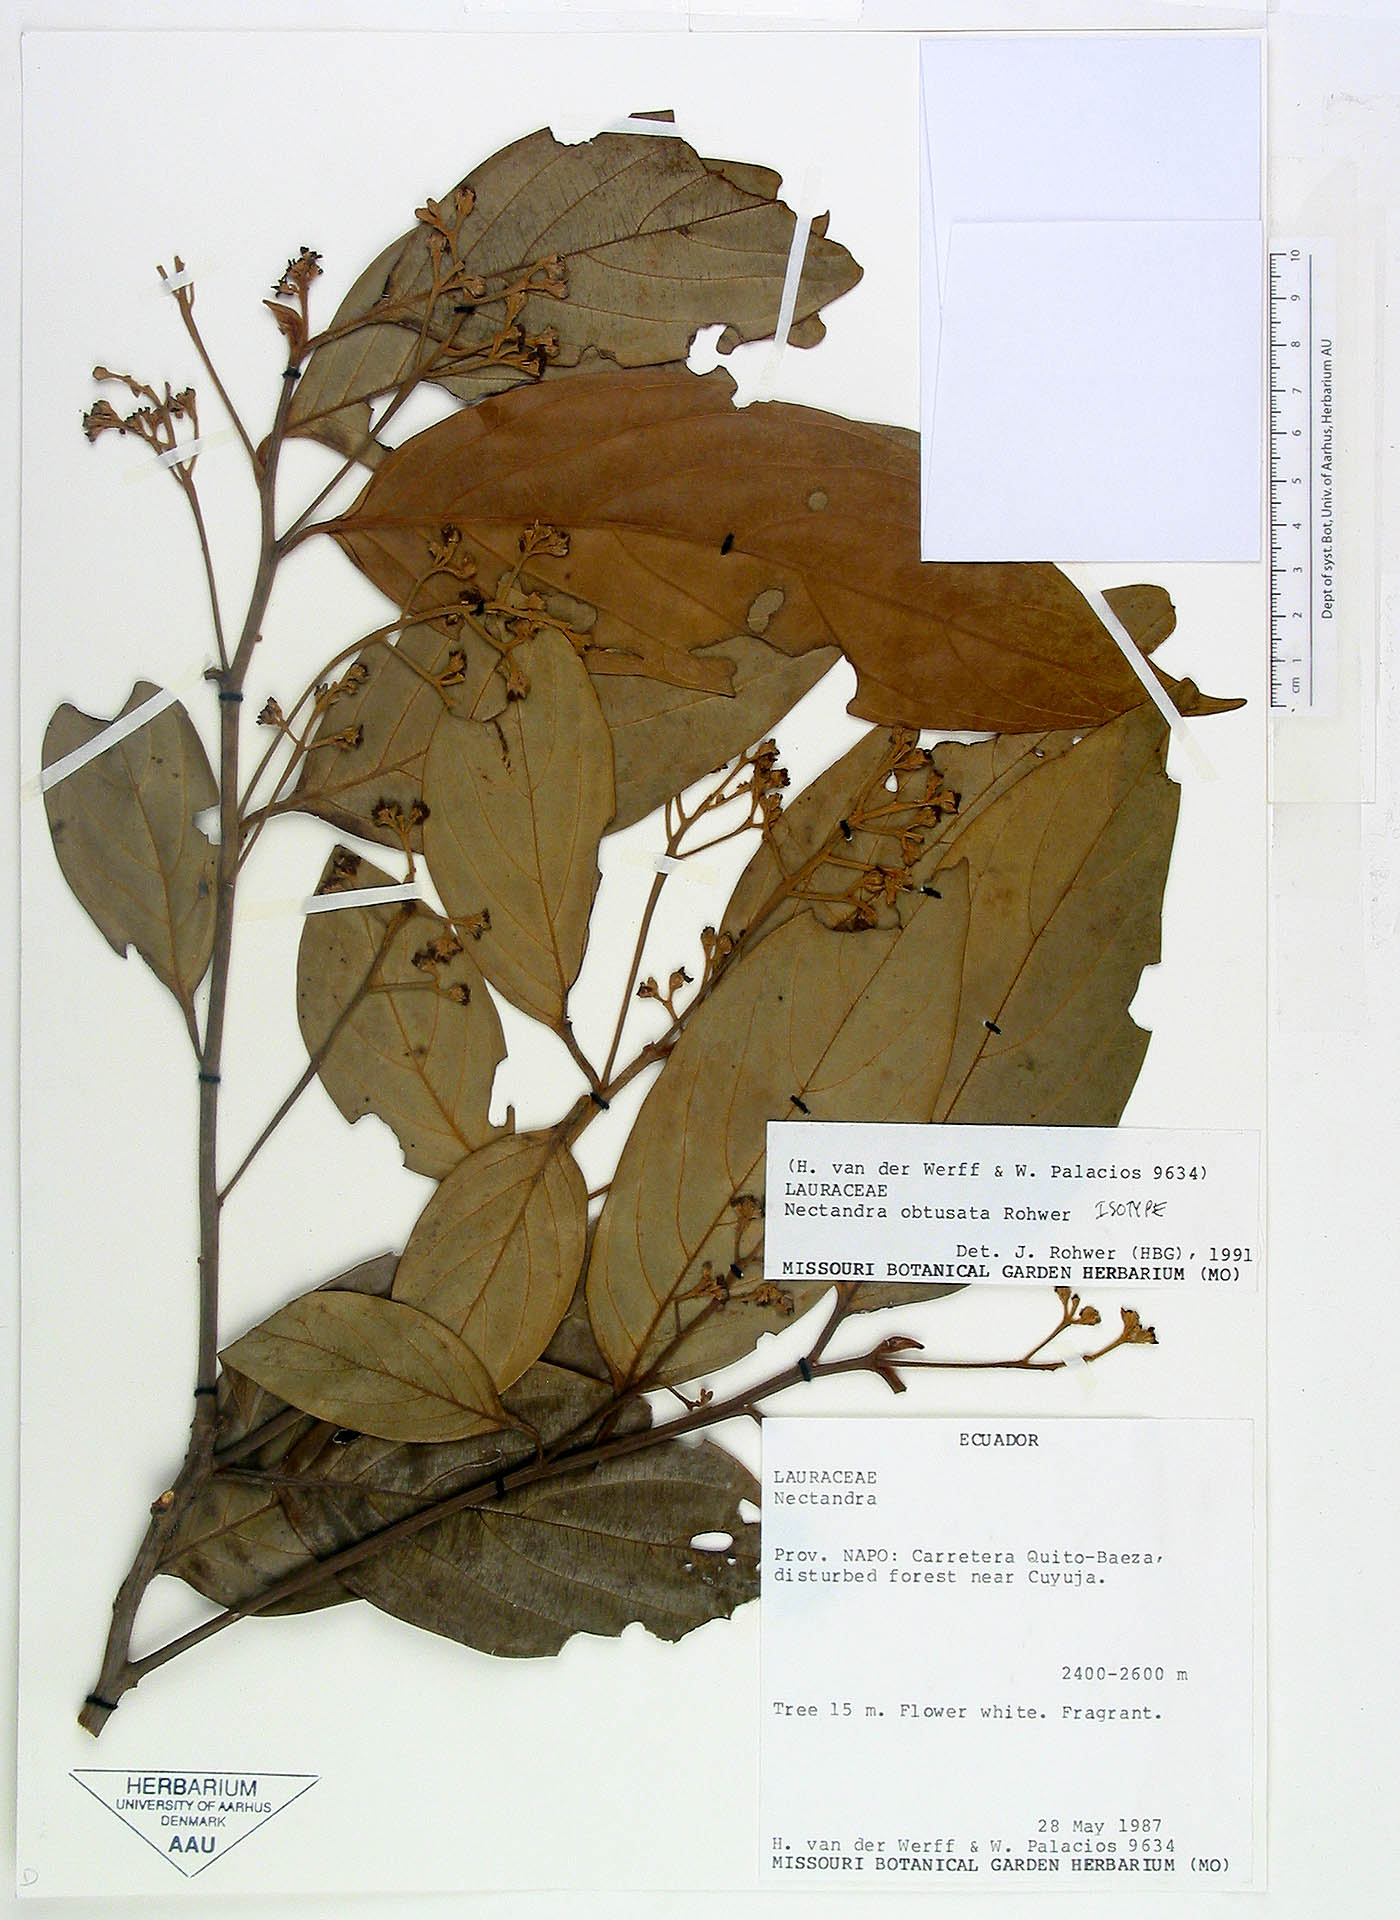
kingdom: Plantae
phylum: Tracheophyta
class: Magnoliopsida
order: Laurales
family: Lauraceae
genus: Nectandra
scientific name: Nectandra obtusata
